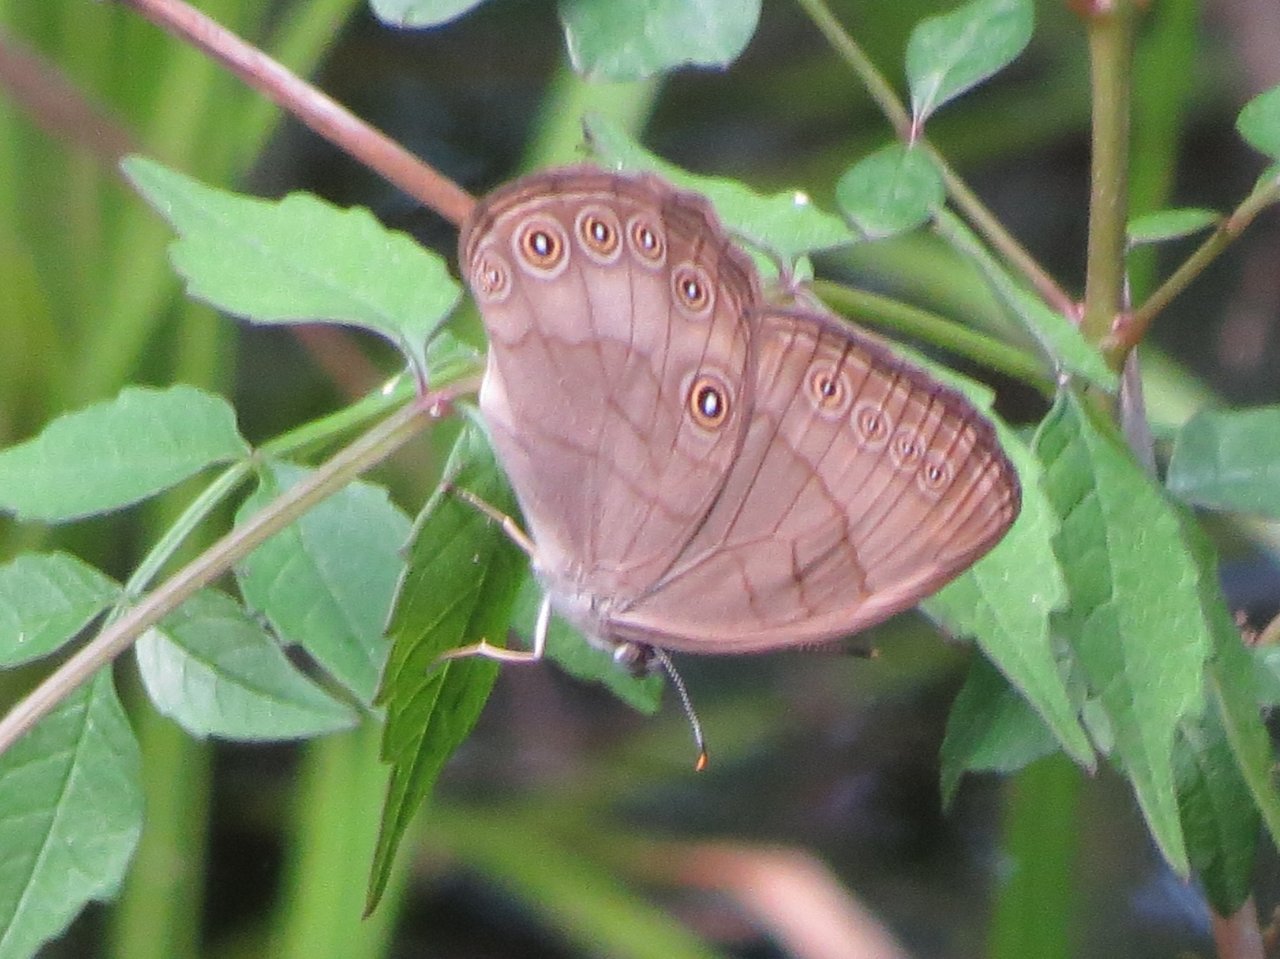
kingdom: Animalia
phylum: Arthropoda
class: Insecta
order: Lepidoptera
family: Nymphalidae
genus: Lethe
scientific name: Lethe eurydice
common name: Appalachian Eyed Brown
